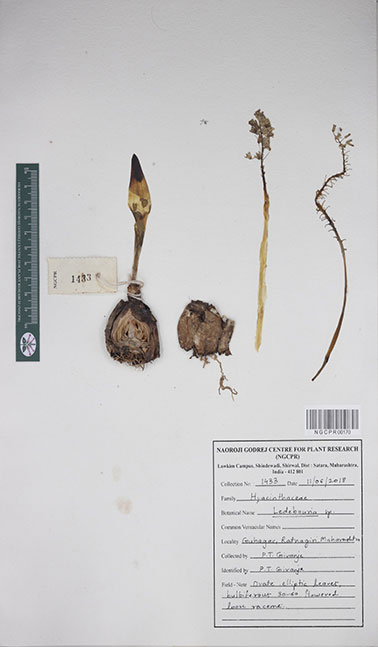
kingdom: Plantae
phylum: Tracheophyta
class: Liliopsida
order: Asparagales
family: Asparagaceae
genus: Ledebouria
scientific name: Ledebouria
